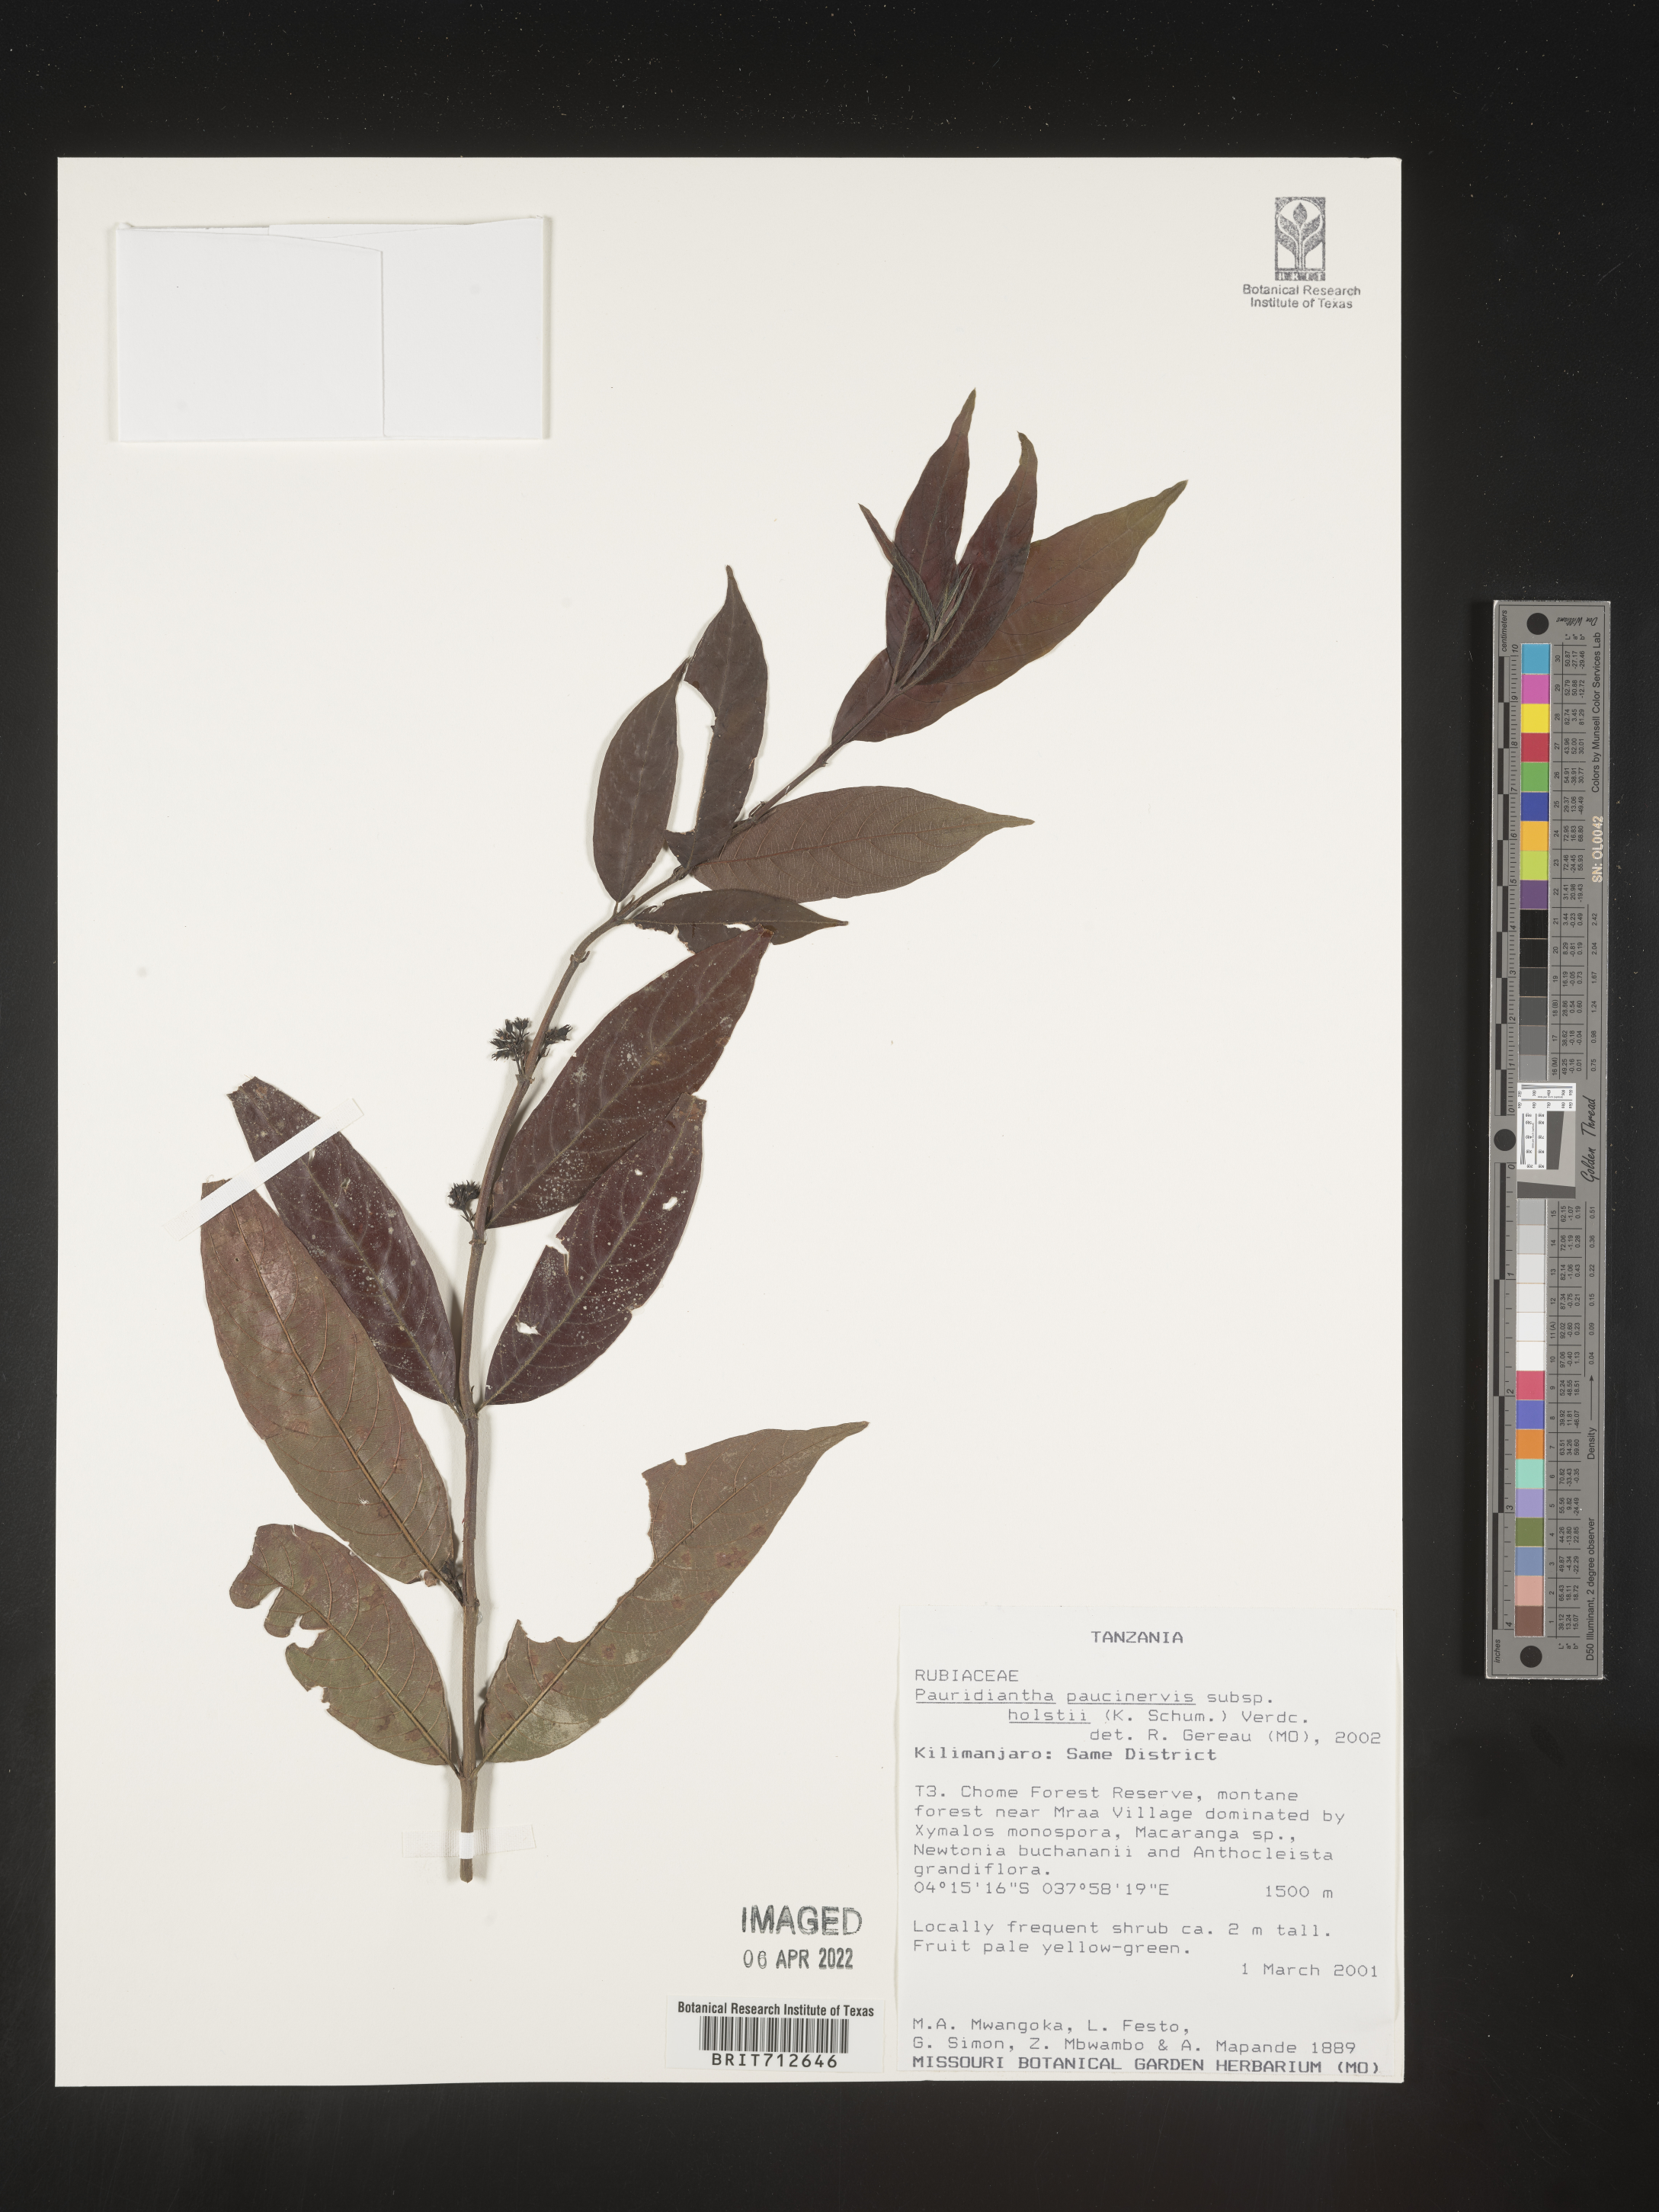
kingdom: Plantae
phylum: Tracheophyta
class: Magnoliopsida
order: Gentianales
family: Rubiaceae
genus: Pauridiantha
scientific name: Pauridiantha
